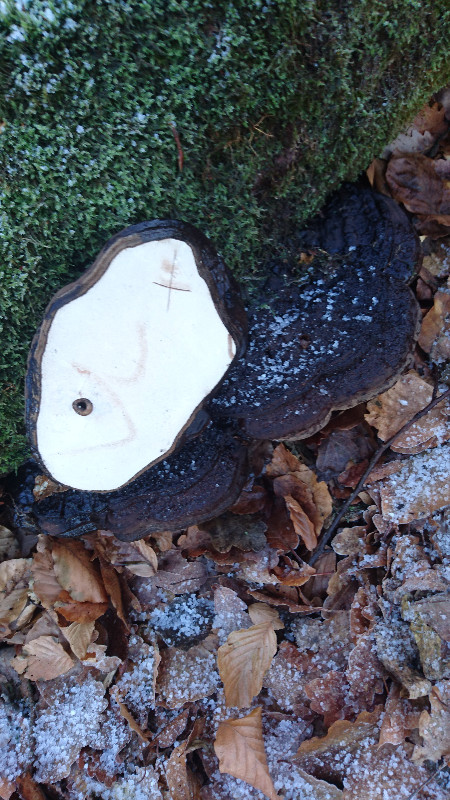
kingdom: Fungi
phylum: Basidiomycota
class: Agaricomycetes
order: Polyporales
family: Polyporaceae
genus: Ganoderma
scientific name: Ganoderma applanatum
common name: flad lakporesvamp
